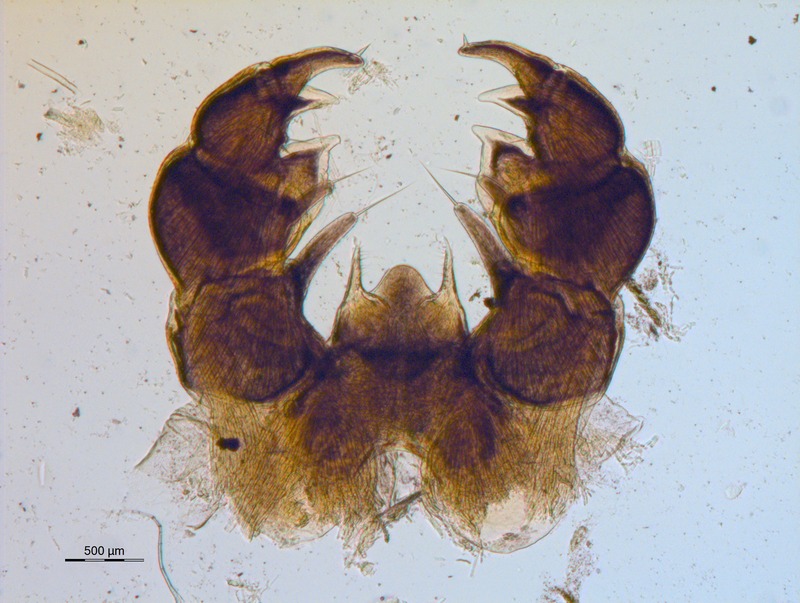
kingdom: Animalia
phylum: Arthropoda
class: Diplopoda
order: Glomerida
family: Glomeridae
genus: Glomeris
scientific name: Glomeris longaronensis
